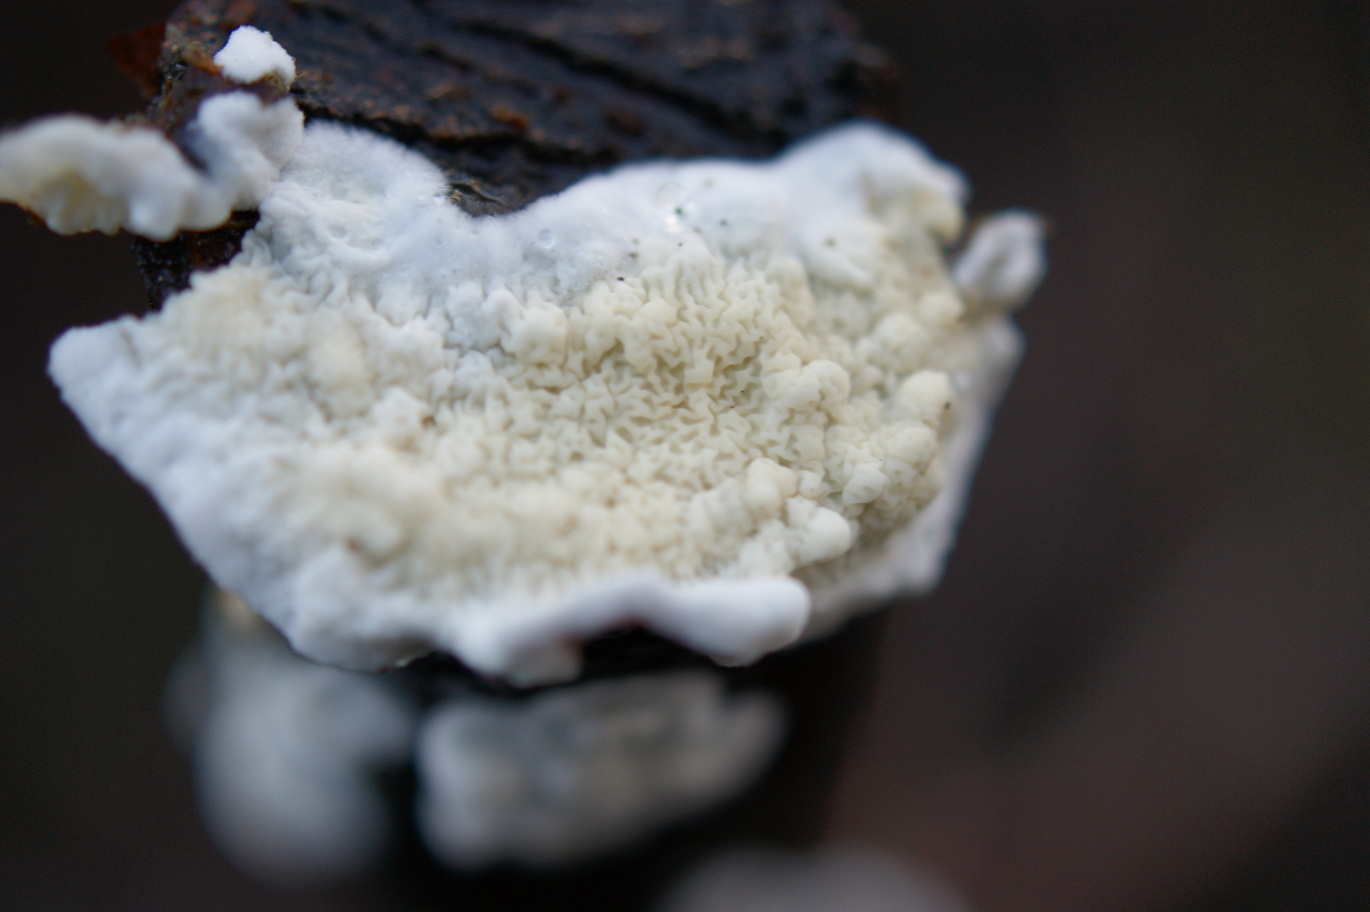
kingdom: Fungi
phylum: Basidiomycota
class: Agaricomycetes
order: Polyporales
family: Irpicaceae
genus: Byssomerulius
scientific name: Byssomerulius corium
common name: læder-åresvamp
